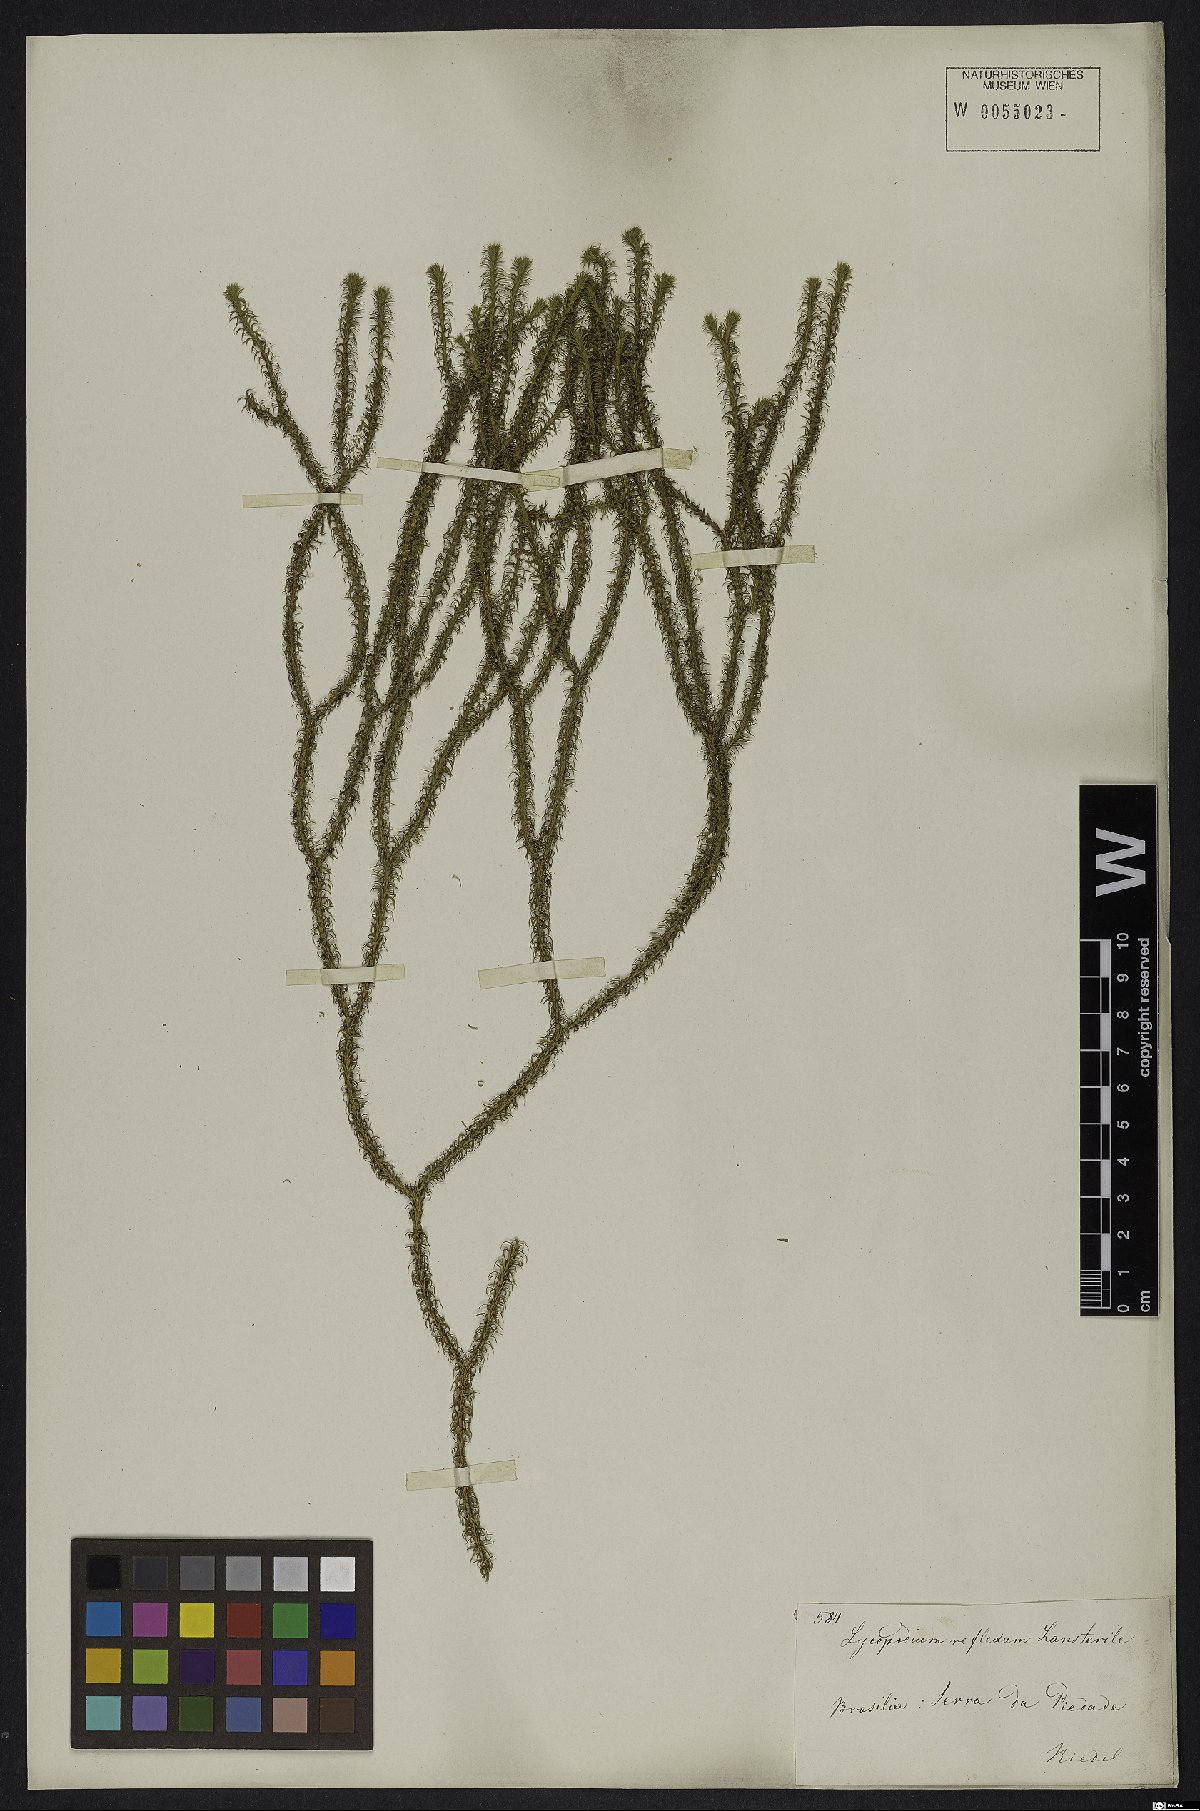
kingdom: Plantae
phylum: Tracheophyta
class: Lycopodiopsida
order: Lycopodiales
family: Lycopodiaceae
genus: Phlegmariurus
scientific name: Phlegmariurus reflexus
